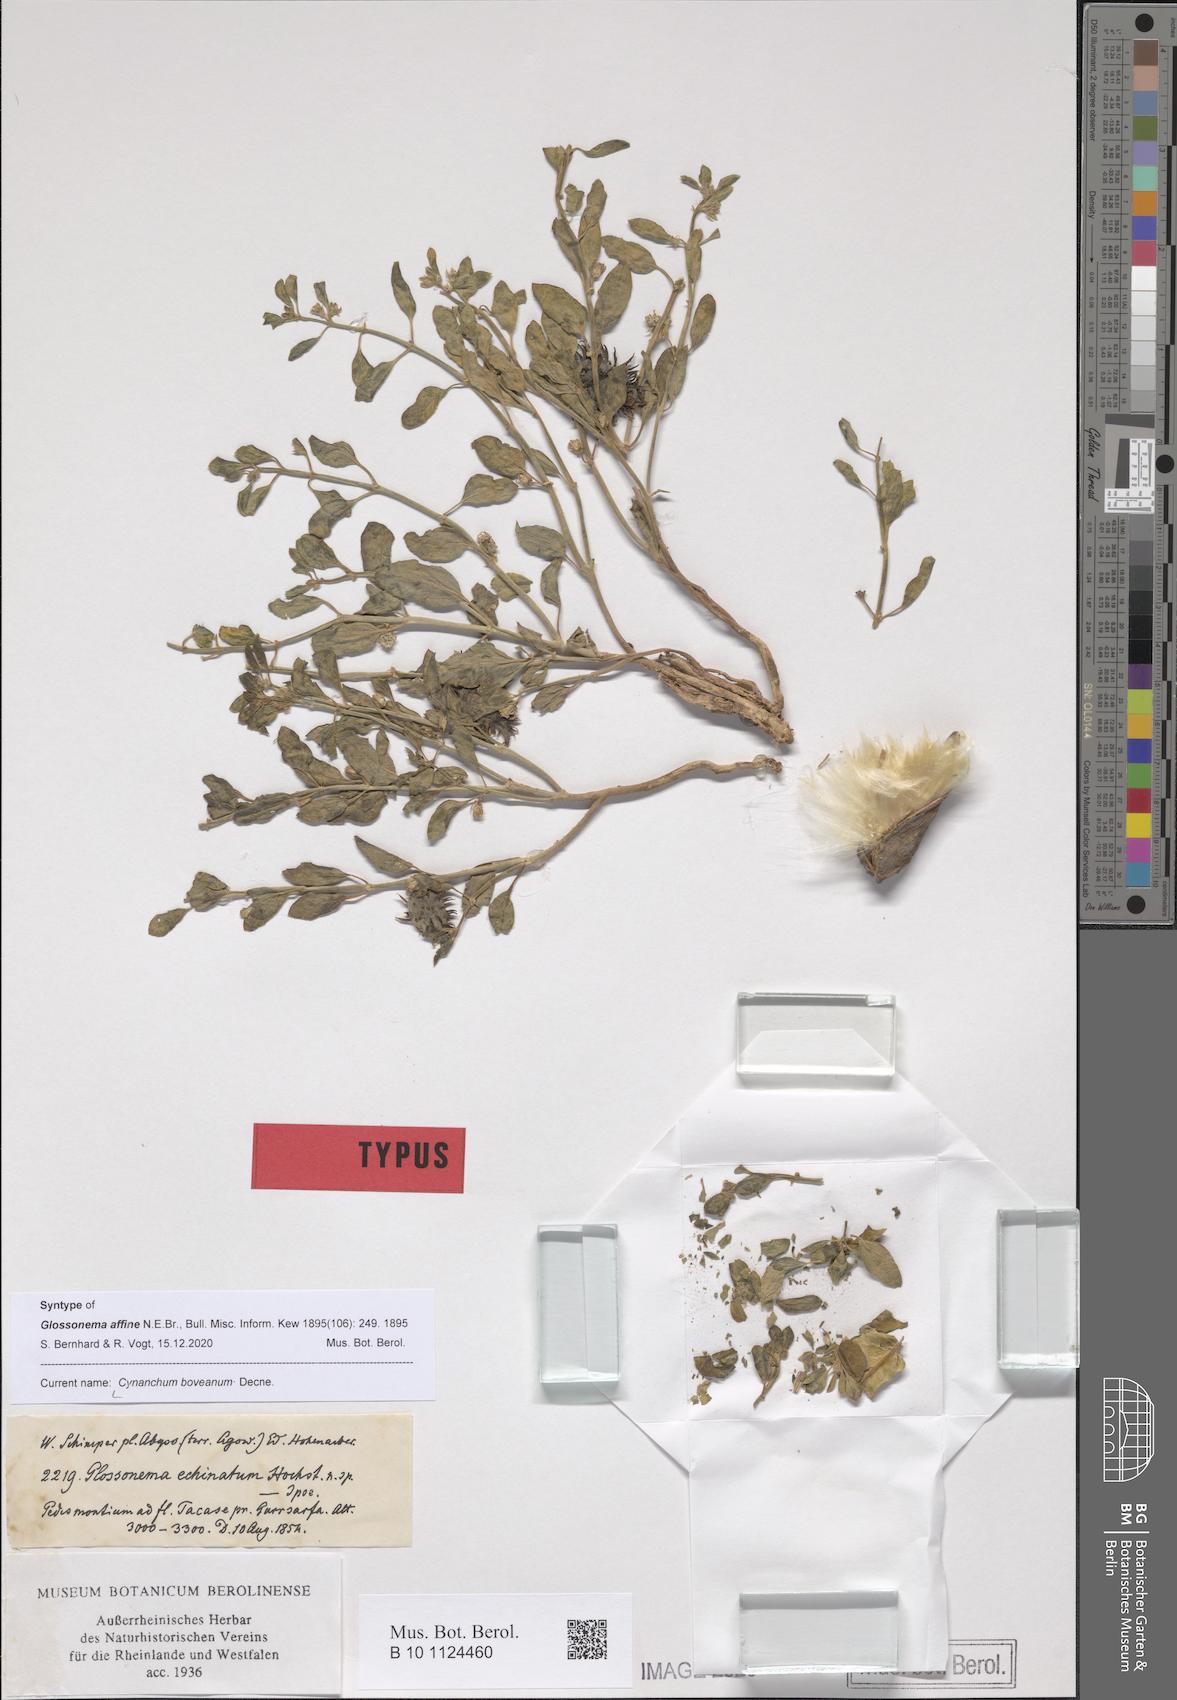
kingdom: Plantae
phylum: Tracheophyta
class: Magnoliopsida
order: Gentianales
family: Apocynaceae
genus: Cynanchum
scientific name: Cynanchum boveanum
